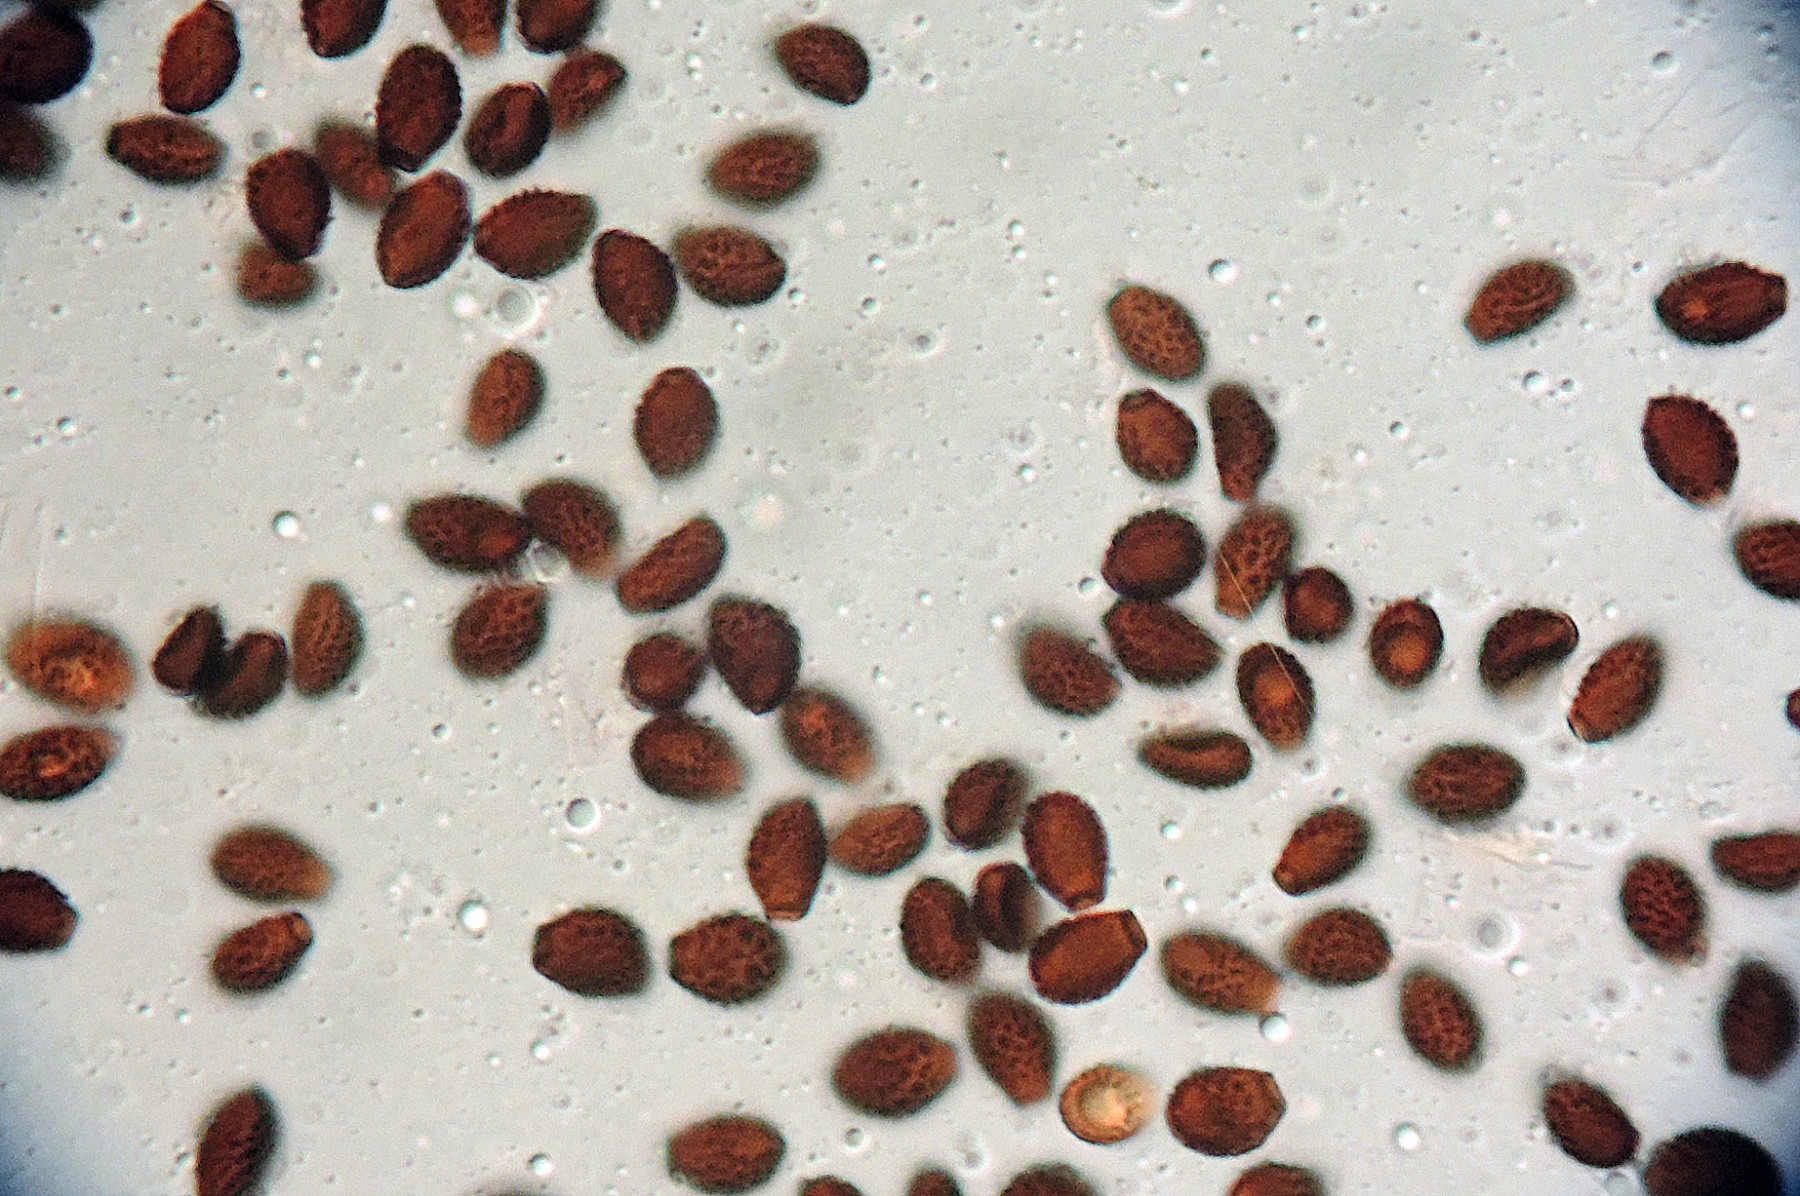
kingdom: Fungi
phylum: Basidiomycota
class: Agaricomycetes
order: Agaricales
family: Psathyrellaceae
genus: Coprinopsis
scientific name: Coprinopsis echinospora
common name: fuglemøg-blækhat
